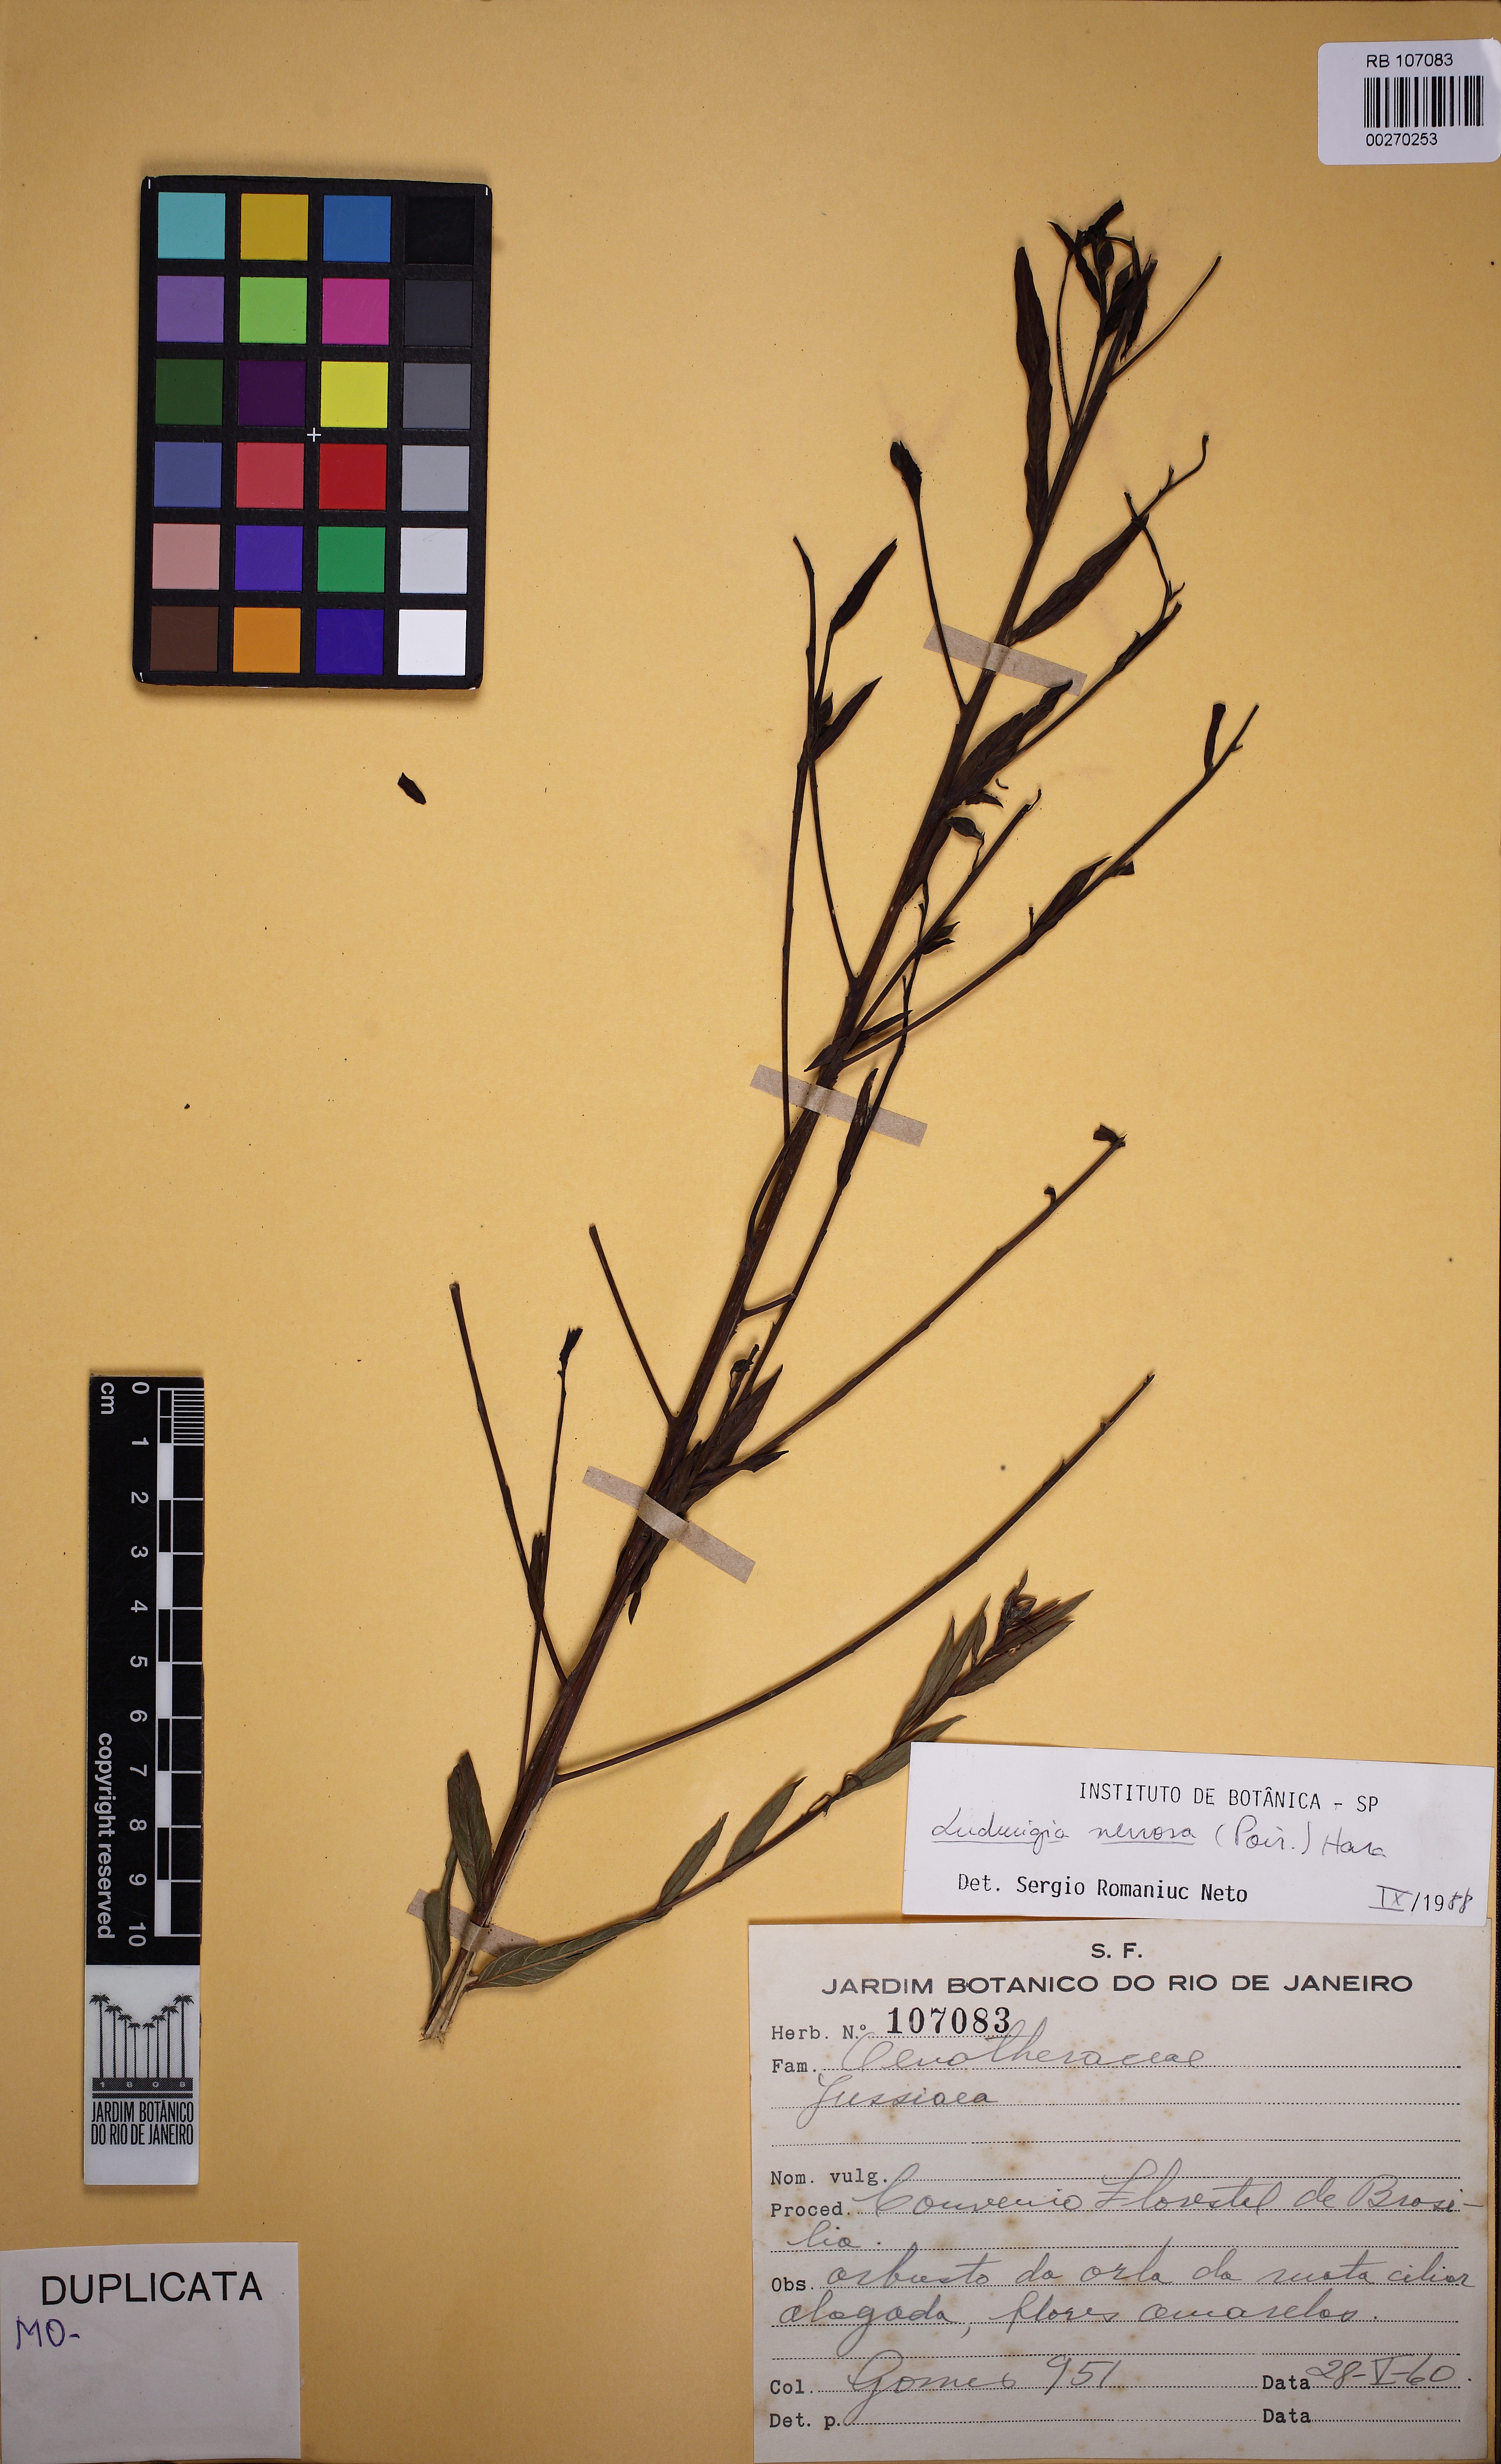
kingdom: Plantae
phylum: Tracheophyta
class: Magnoliopsida
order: Myrtales
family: Onagraceae
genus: Ludwigia
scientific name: Ludwigia nervosa
